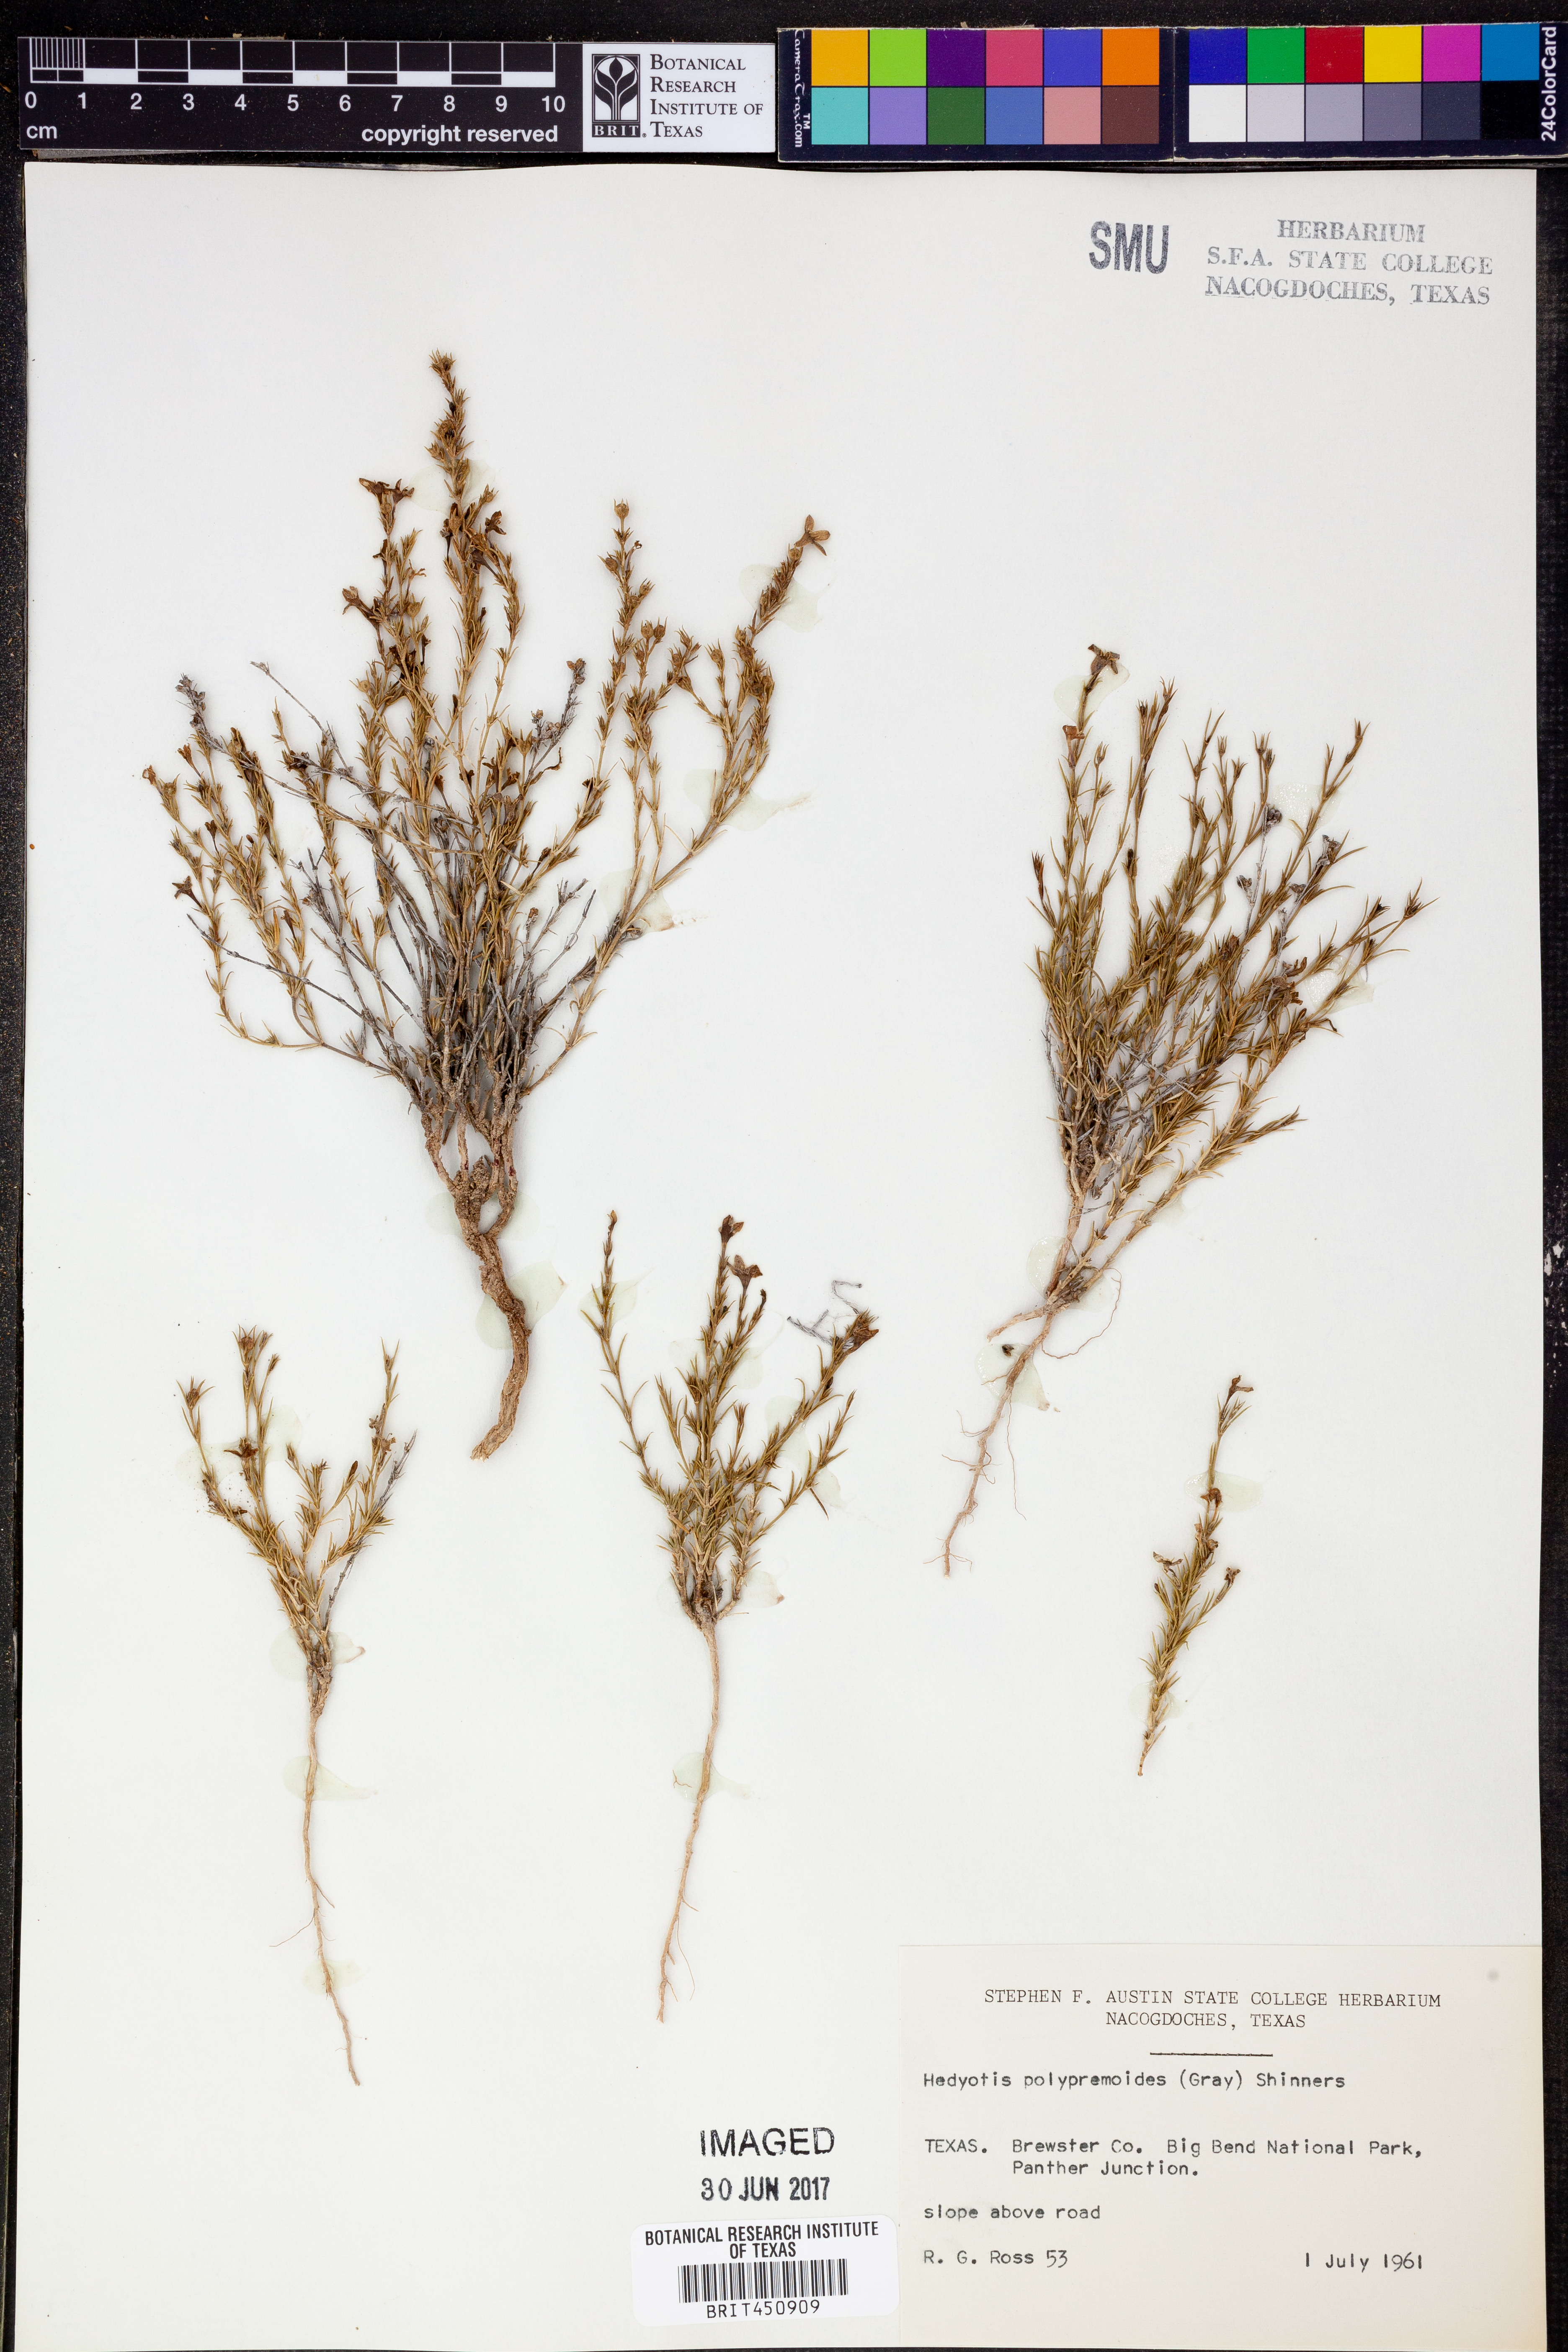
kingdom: Plantae
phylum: Tracheophyta
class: Magnoliopsida
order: Gentianales
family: Rubiaceae
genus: Houstonia
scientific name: Houstonia acerosa
